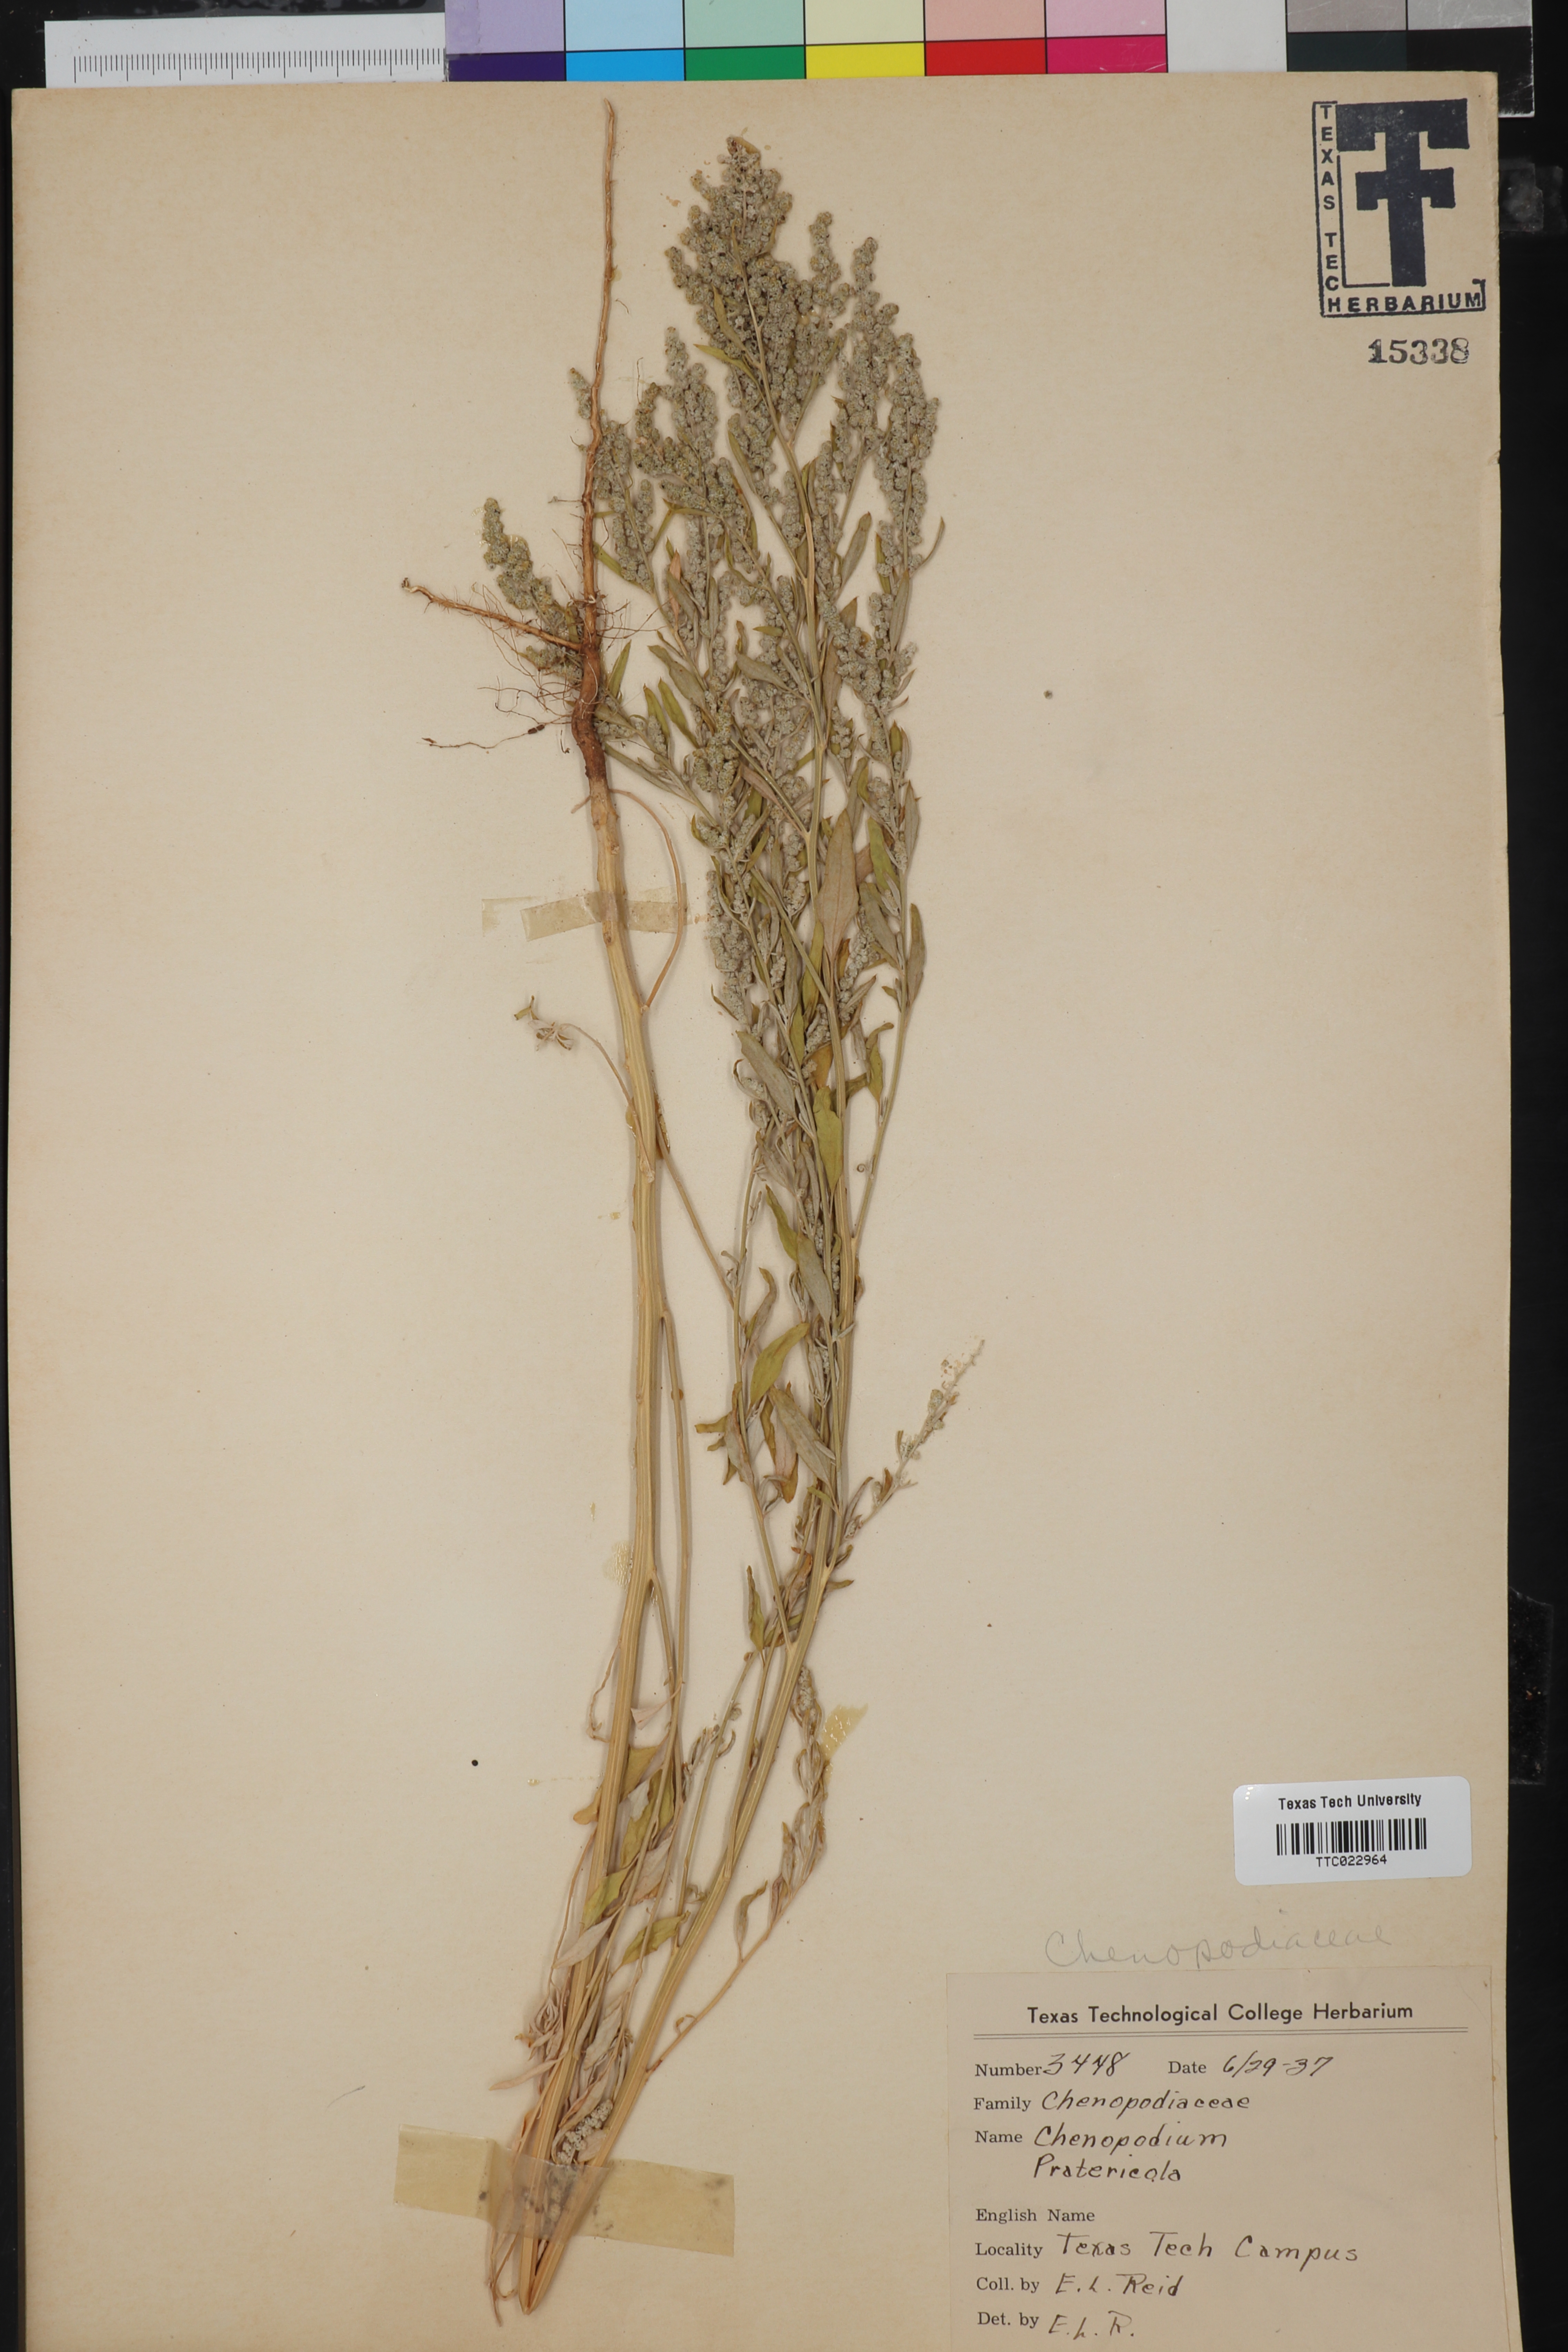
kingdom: Plantae
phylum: Tracheophyta
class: Magnoliopsida
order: Caryophyllales
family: Amaranthaceae
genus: Chenopodium
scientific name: Chenopodium pratericola
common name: Desert goosefoot
